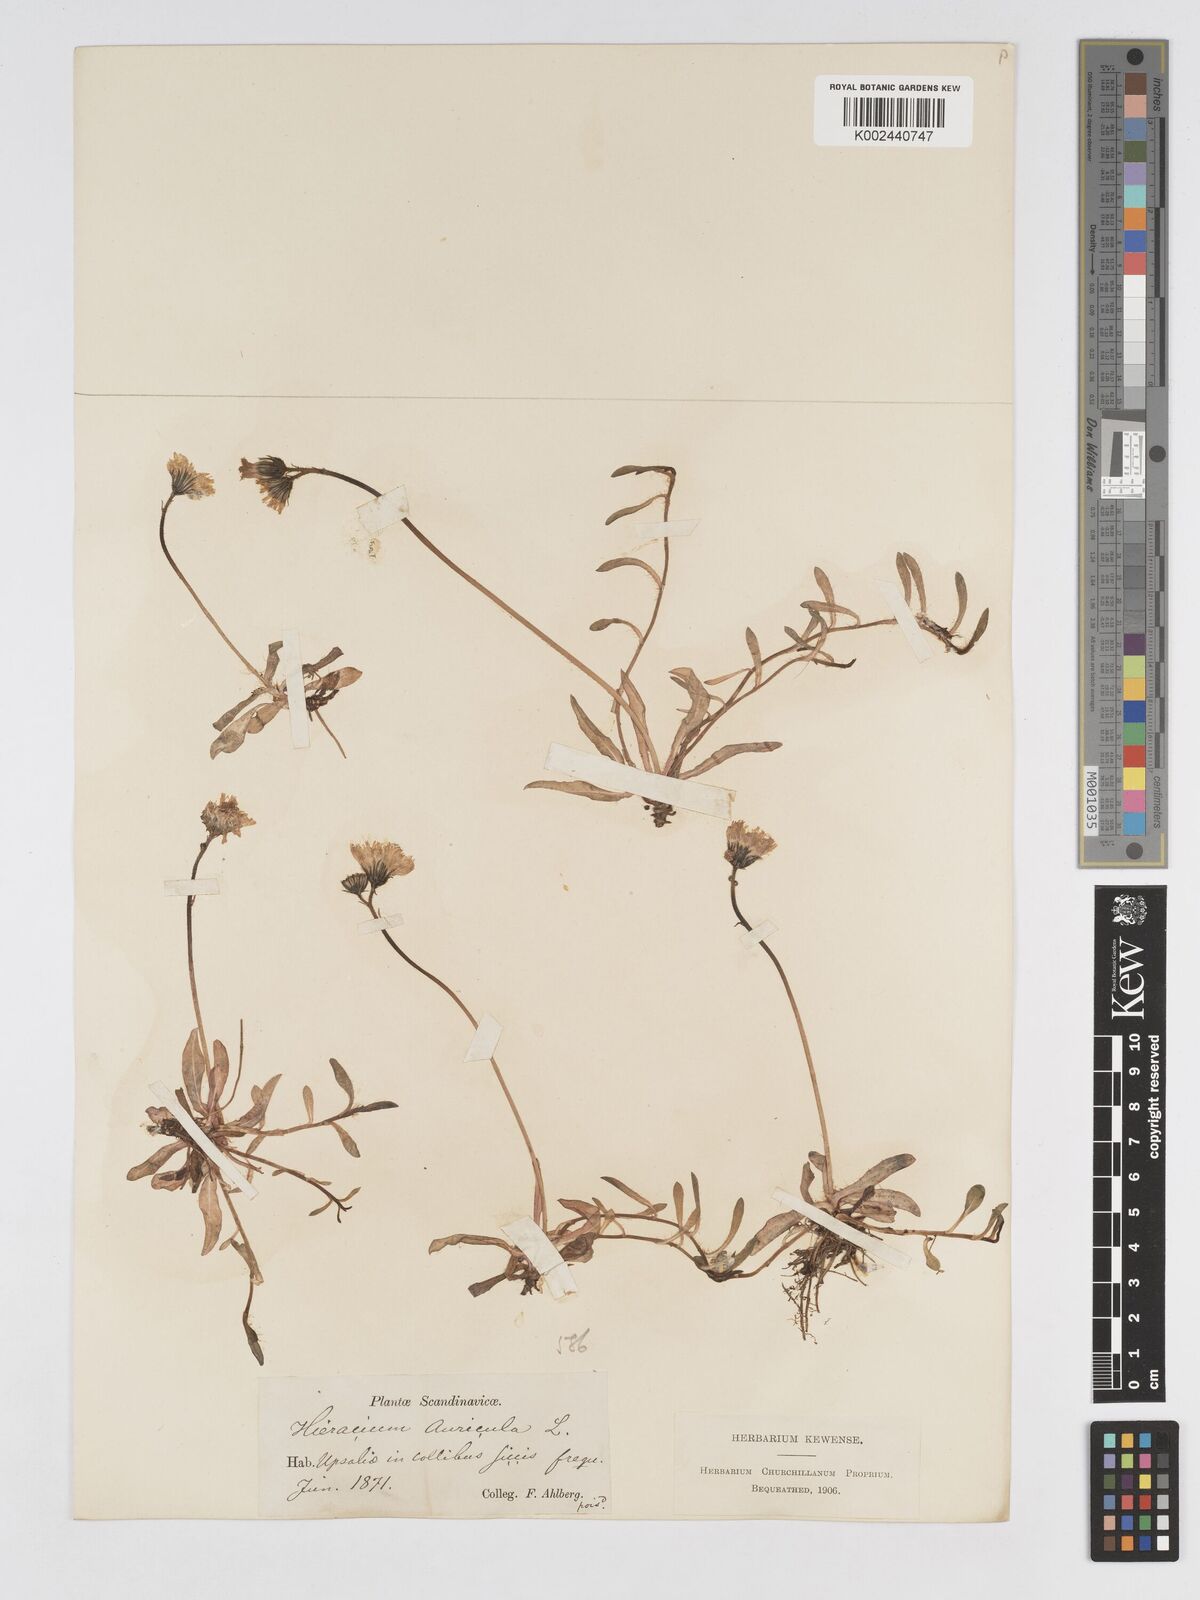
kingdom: Plantae
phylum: Tracheophyta
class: Magnoliopsida
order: Asterales
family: Asteraceae
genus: Pilosella
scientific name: Pilosella floribunda
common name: Glaucous hawkweed
